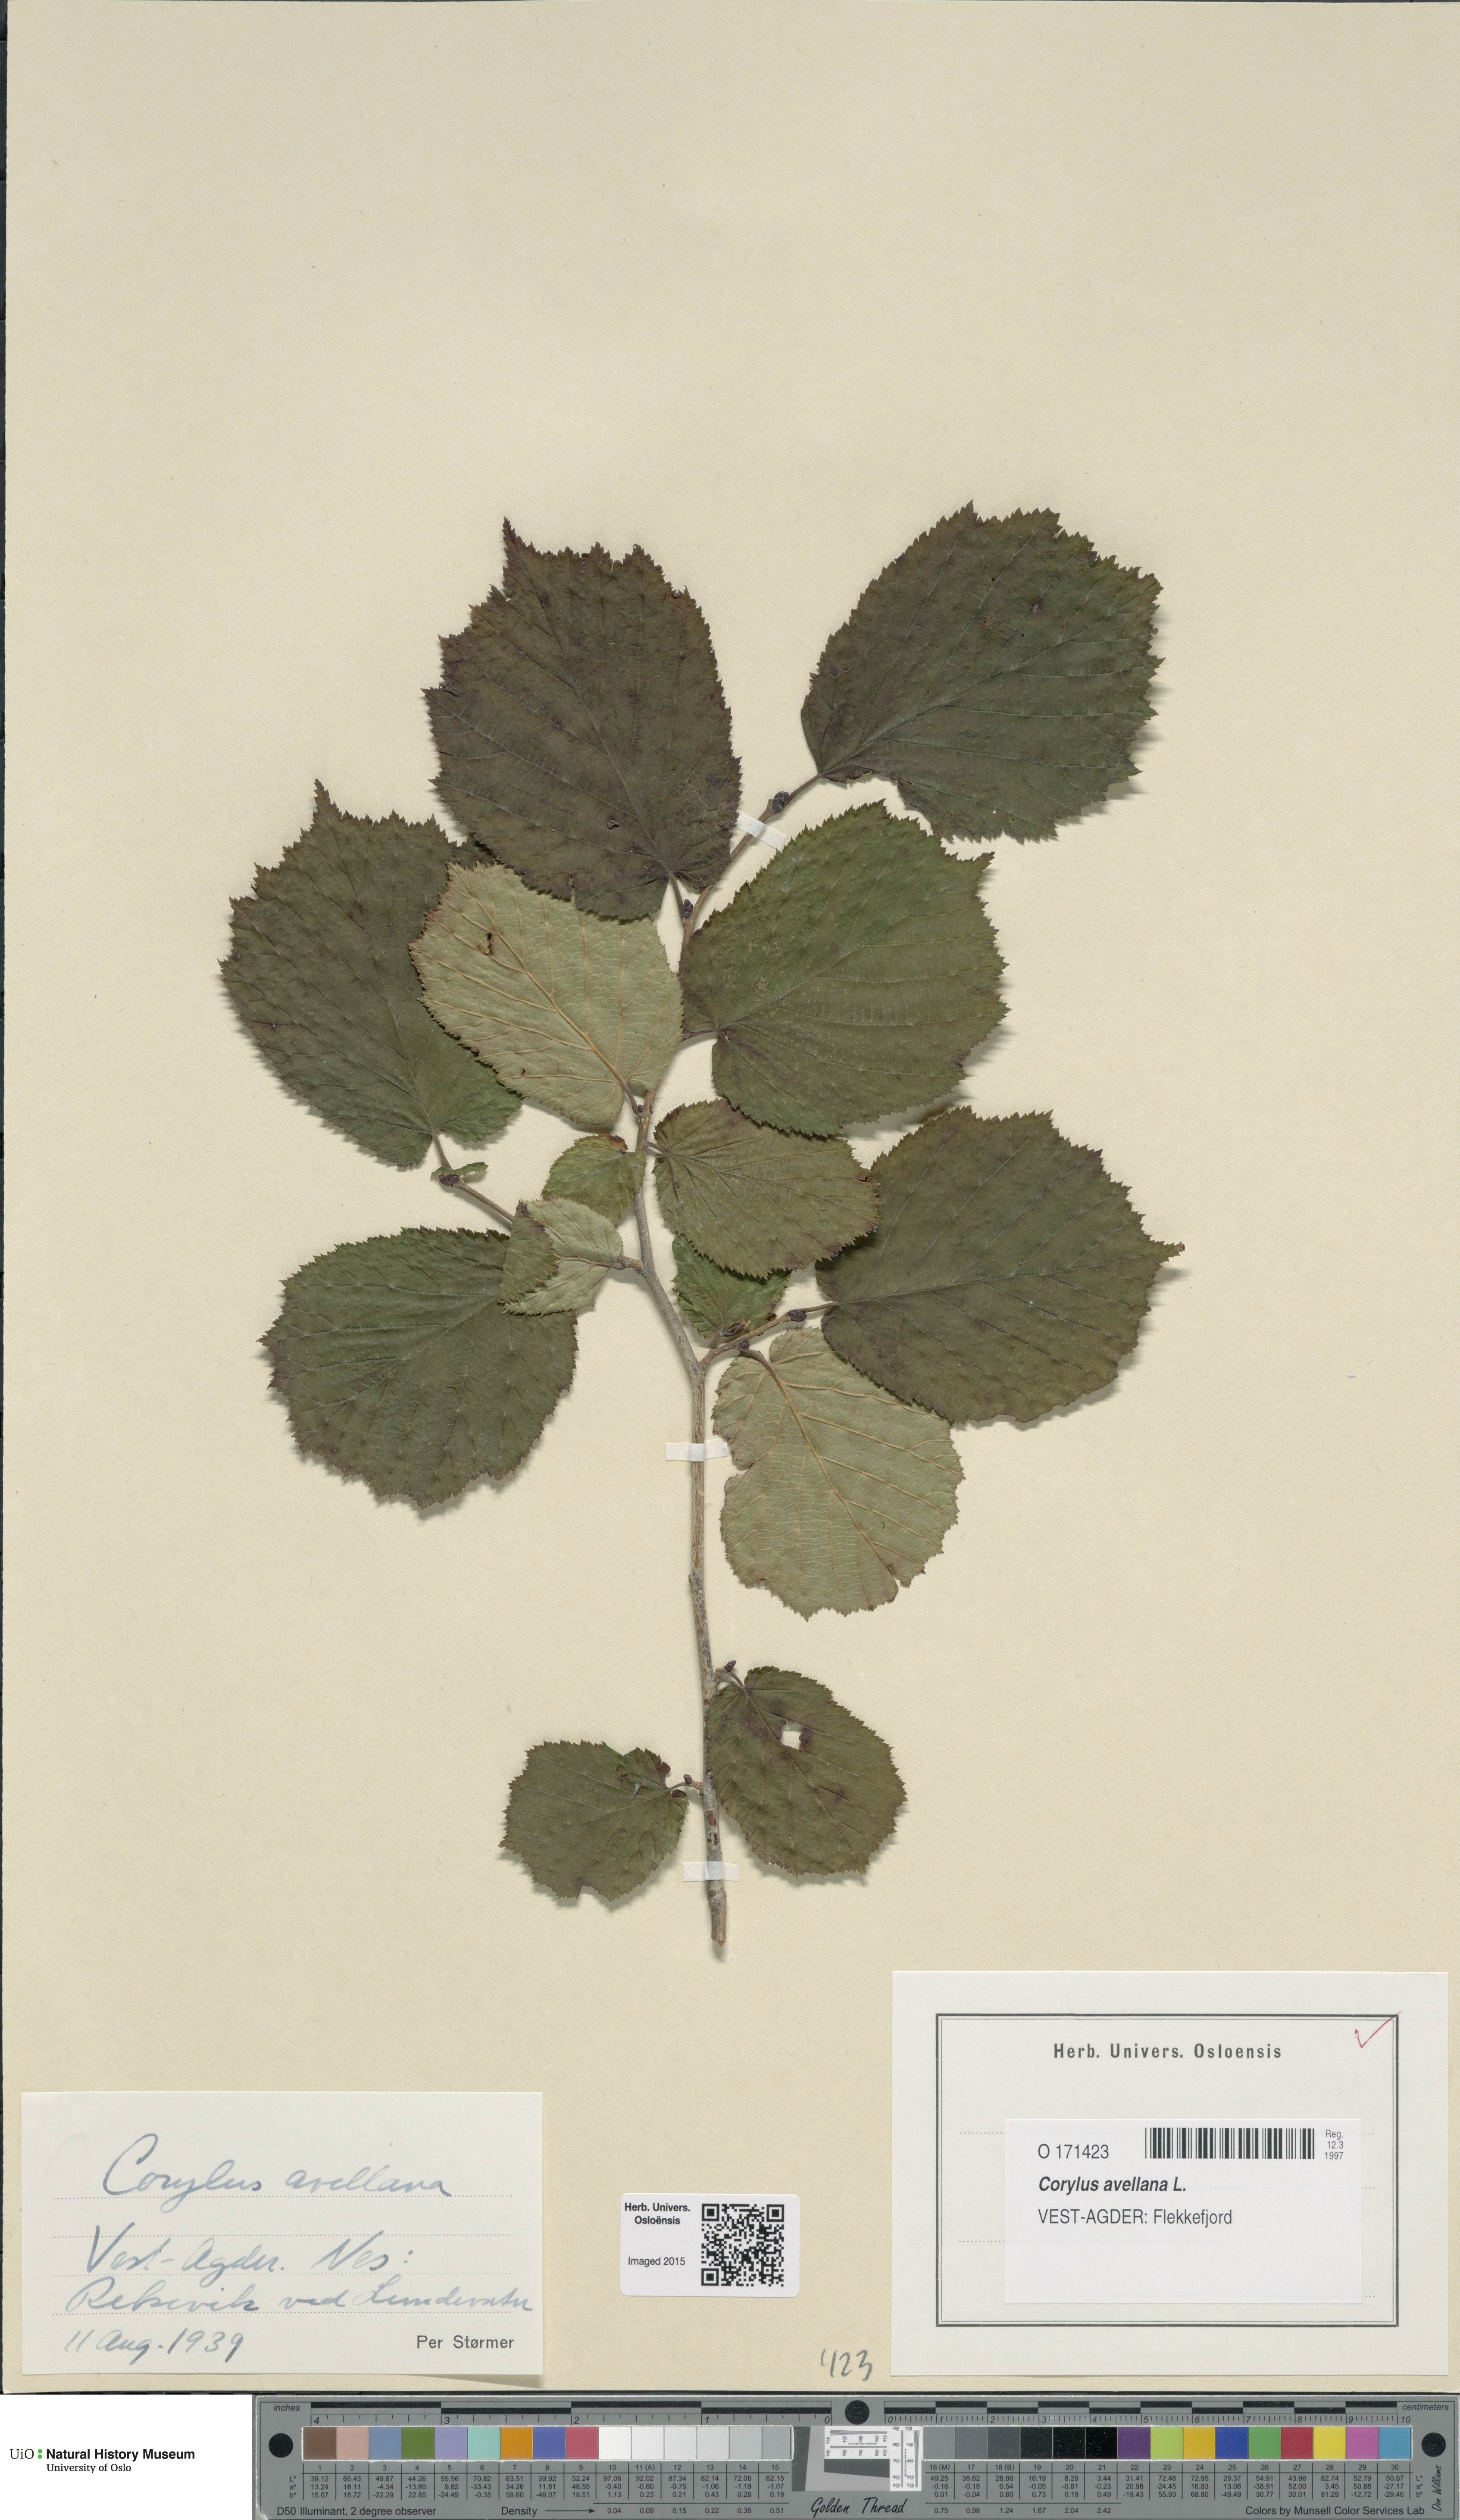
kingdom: Plantae
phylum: Tracheophyta
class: Magnoliopsida
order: Fagales
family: Betulaceae
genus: Corylus
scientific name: Corylus avellana
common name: European hazel
